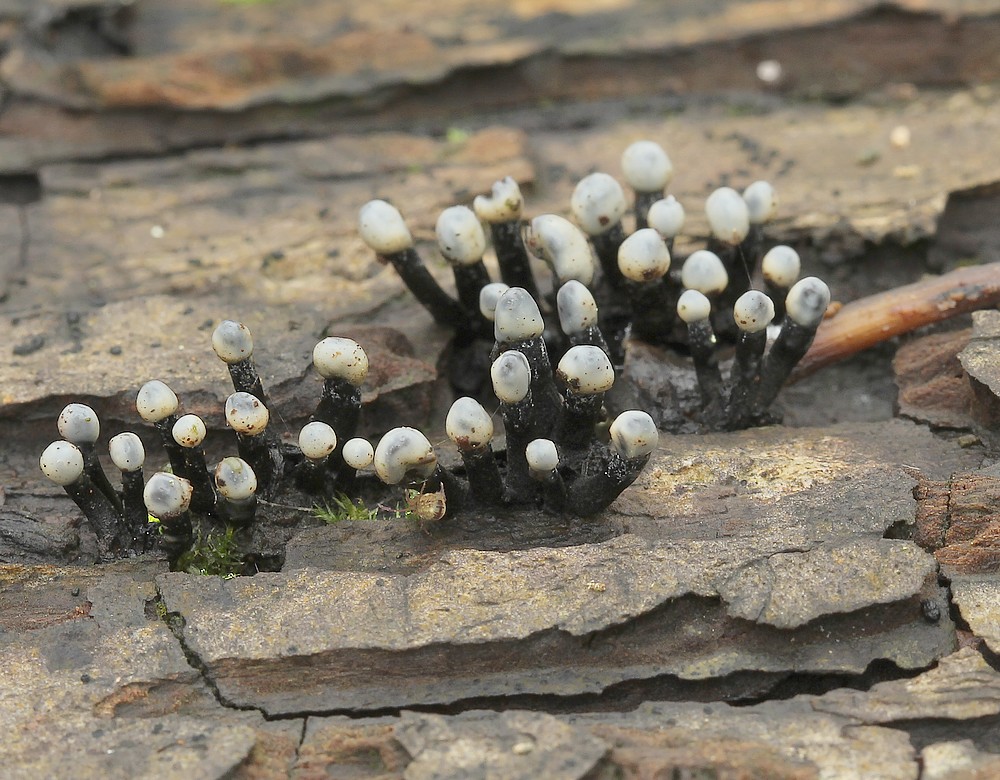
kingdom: Fungi
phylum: Ascomycota
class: Leotiomycetes
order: Helotiales
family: Bulgariaceae
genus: Holwaya
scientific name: Holwaya mucida
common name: lindeskive
